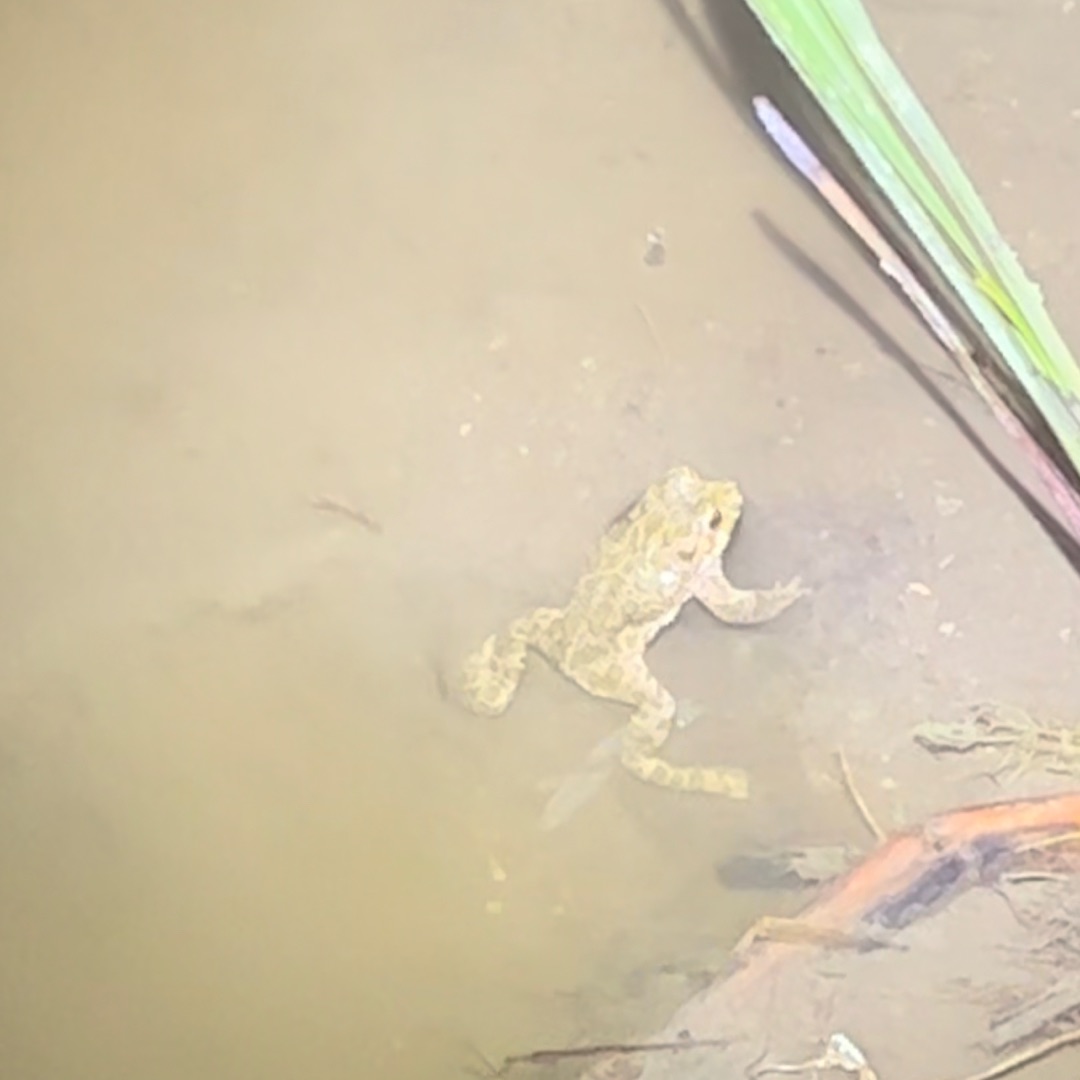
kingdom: Animalia
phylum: Chordata
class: Amphibia
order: Anura
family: Bufonidae
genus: Bufotes
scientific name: Bufotes viridis
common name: Grønbroget tudse
